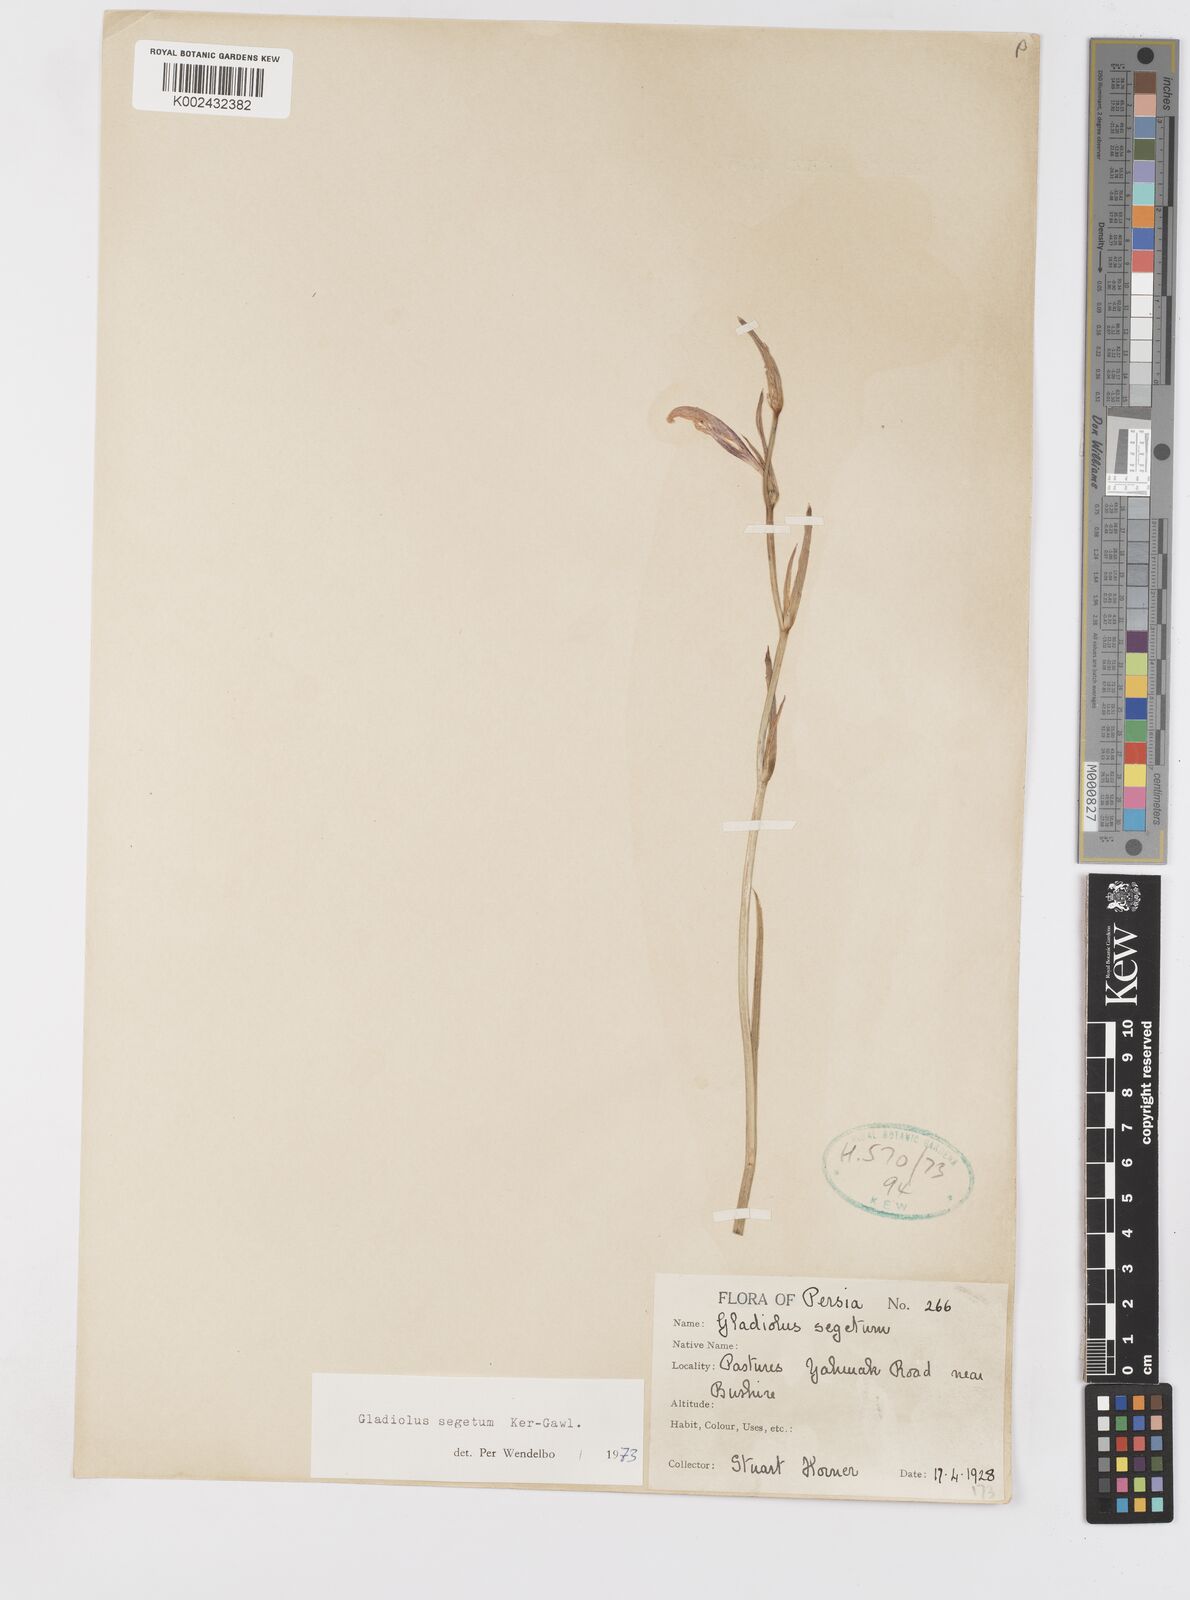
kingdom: Plantae
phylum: Tracheophyta
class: Liliopsida
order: Asparagales
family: Iridaceae
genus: Gladiolus
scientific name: Gladiolus italicus
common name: Field gladiolus
